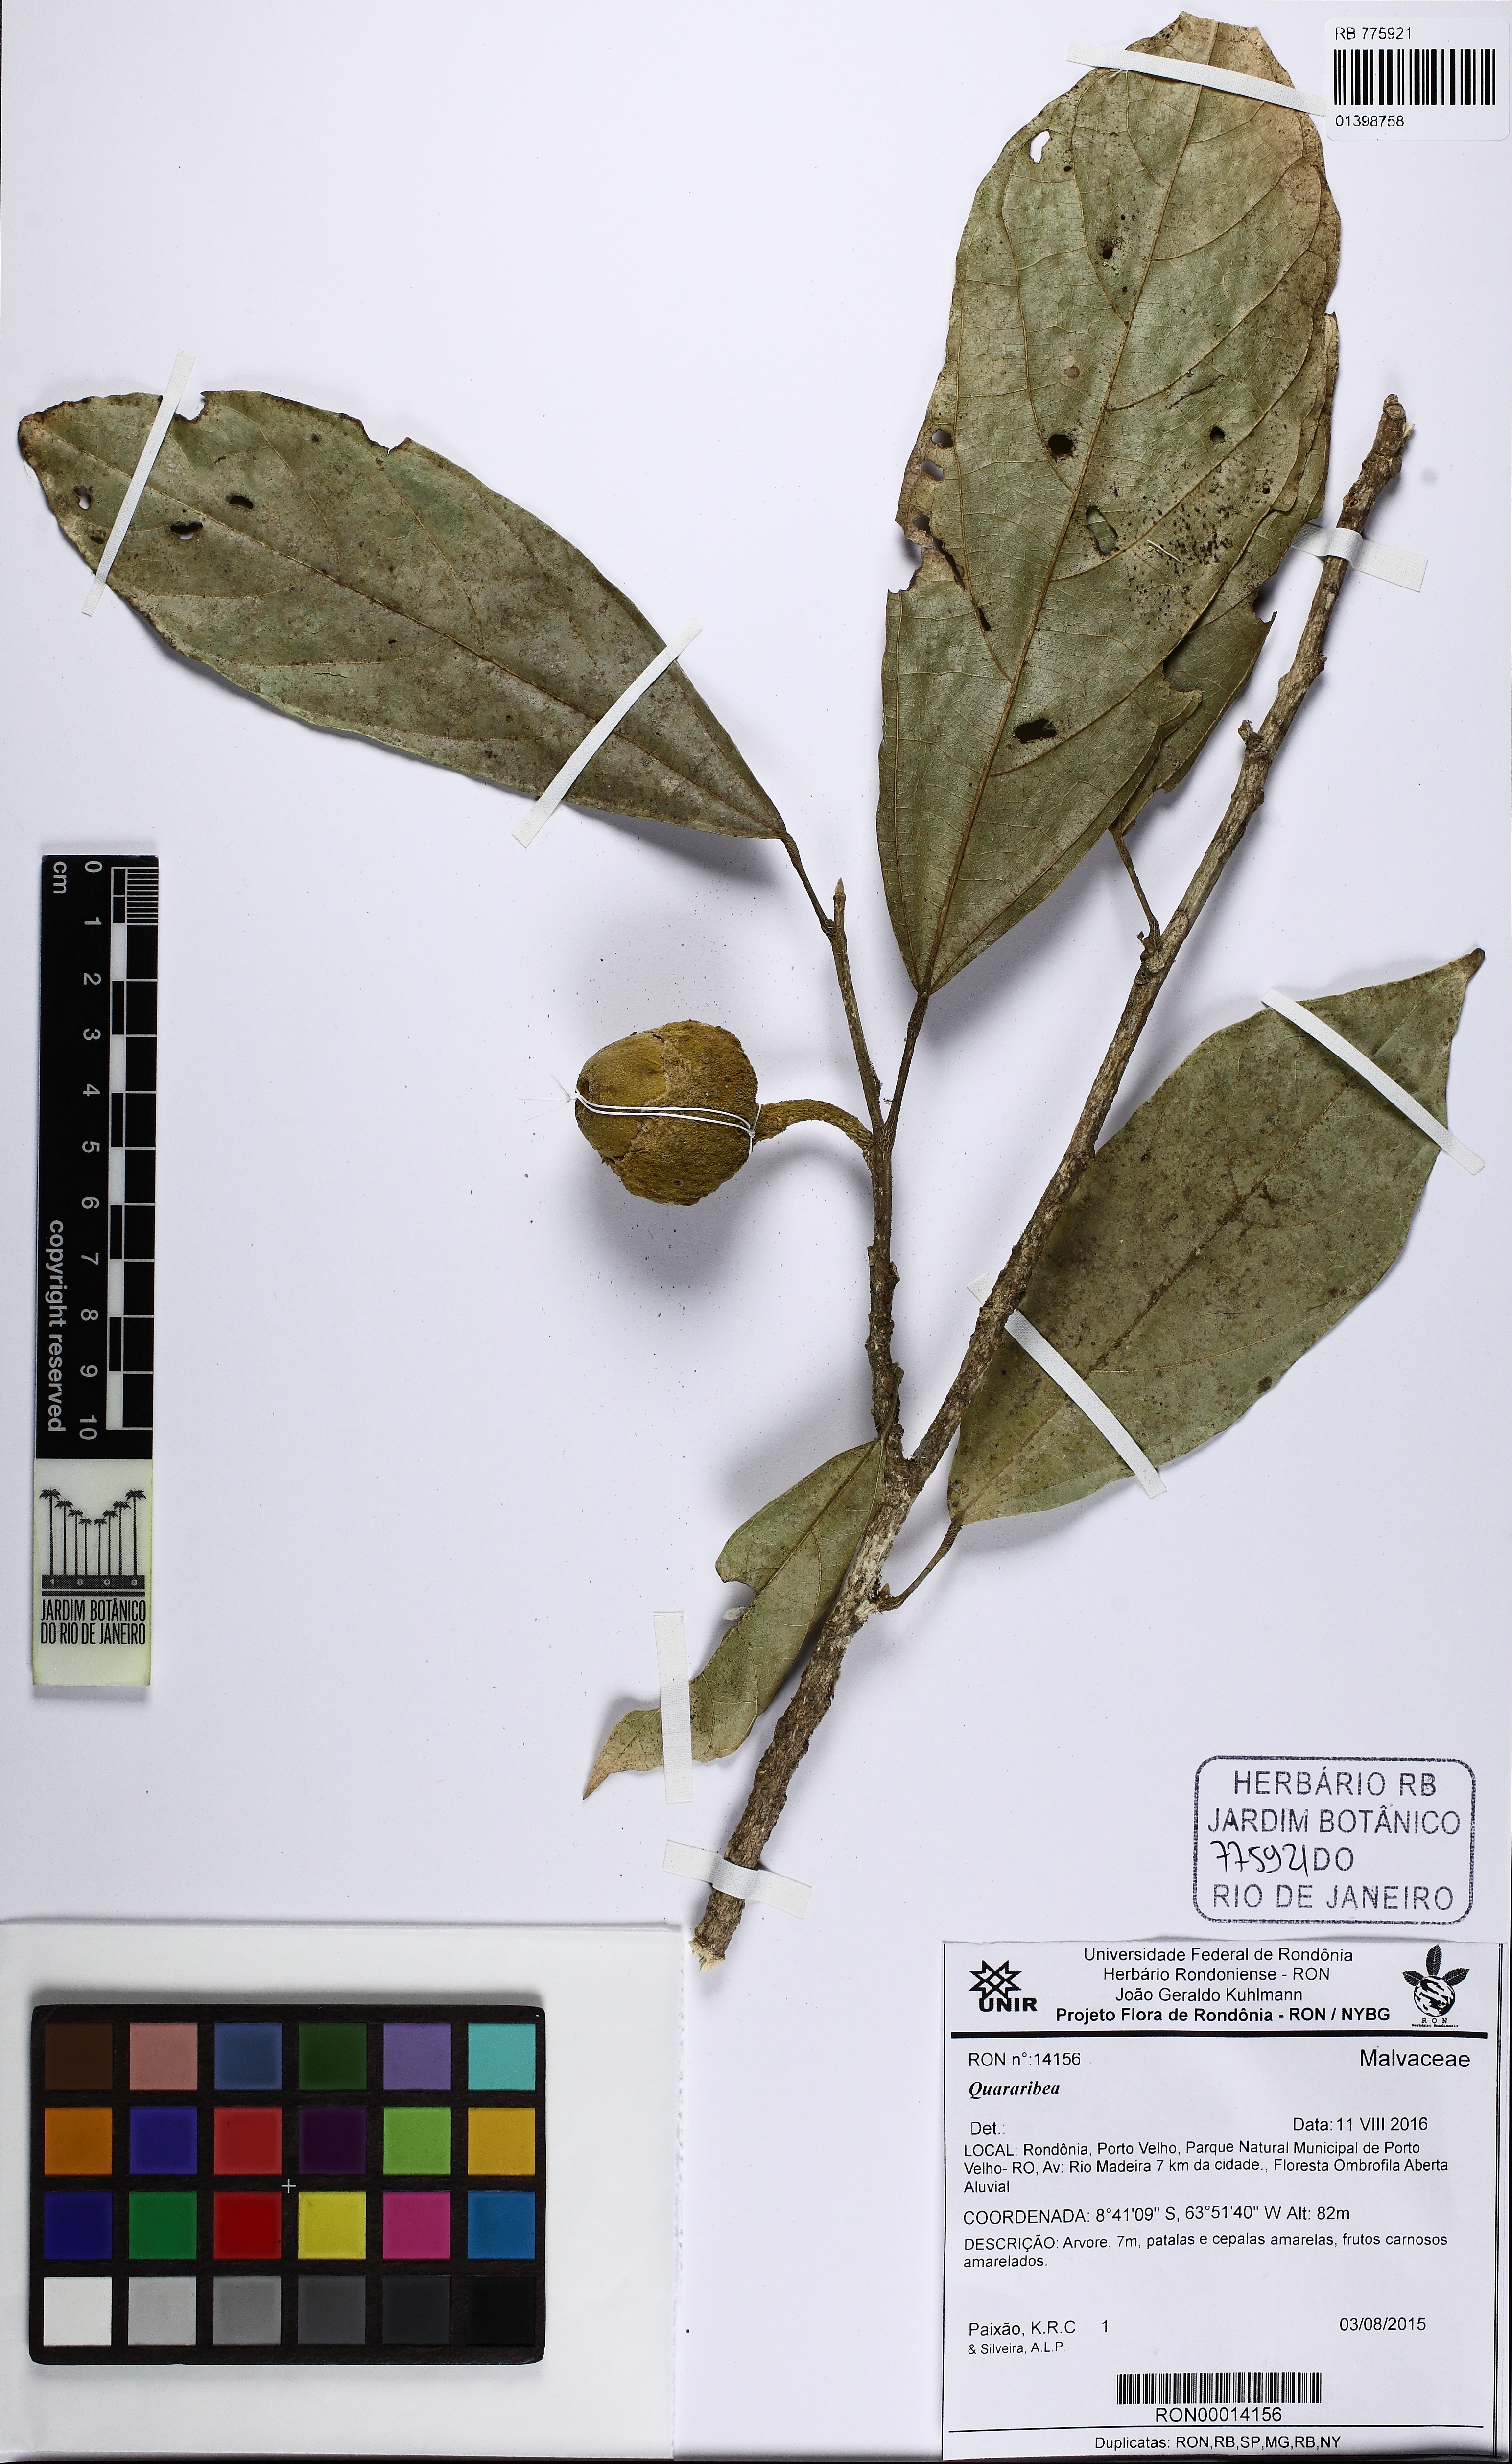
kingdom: Plantae
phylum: Tracheophyta
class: Magnoliopsida
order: Malvales
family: Malvaceae
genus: Matisia
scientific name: Matisia ochrocalyx
